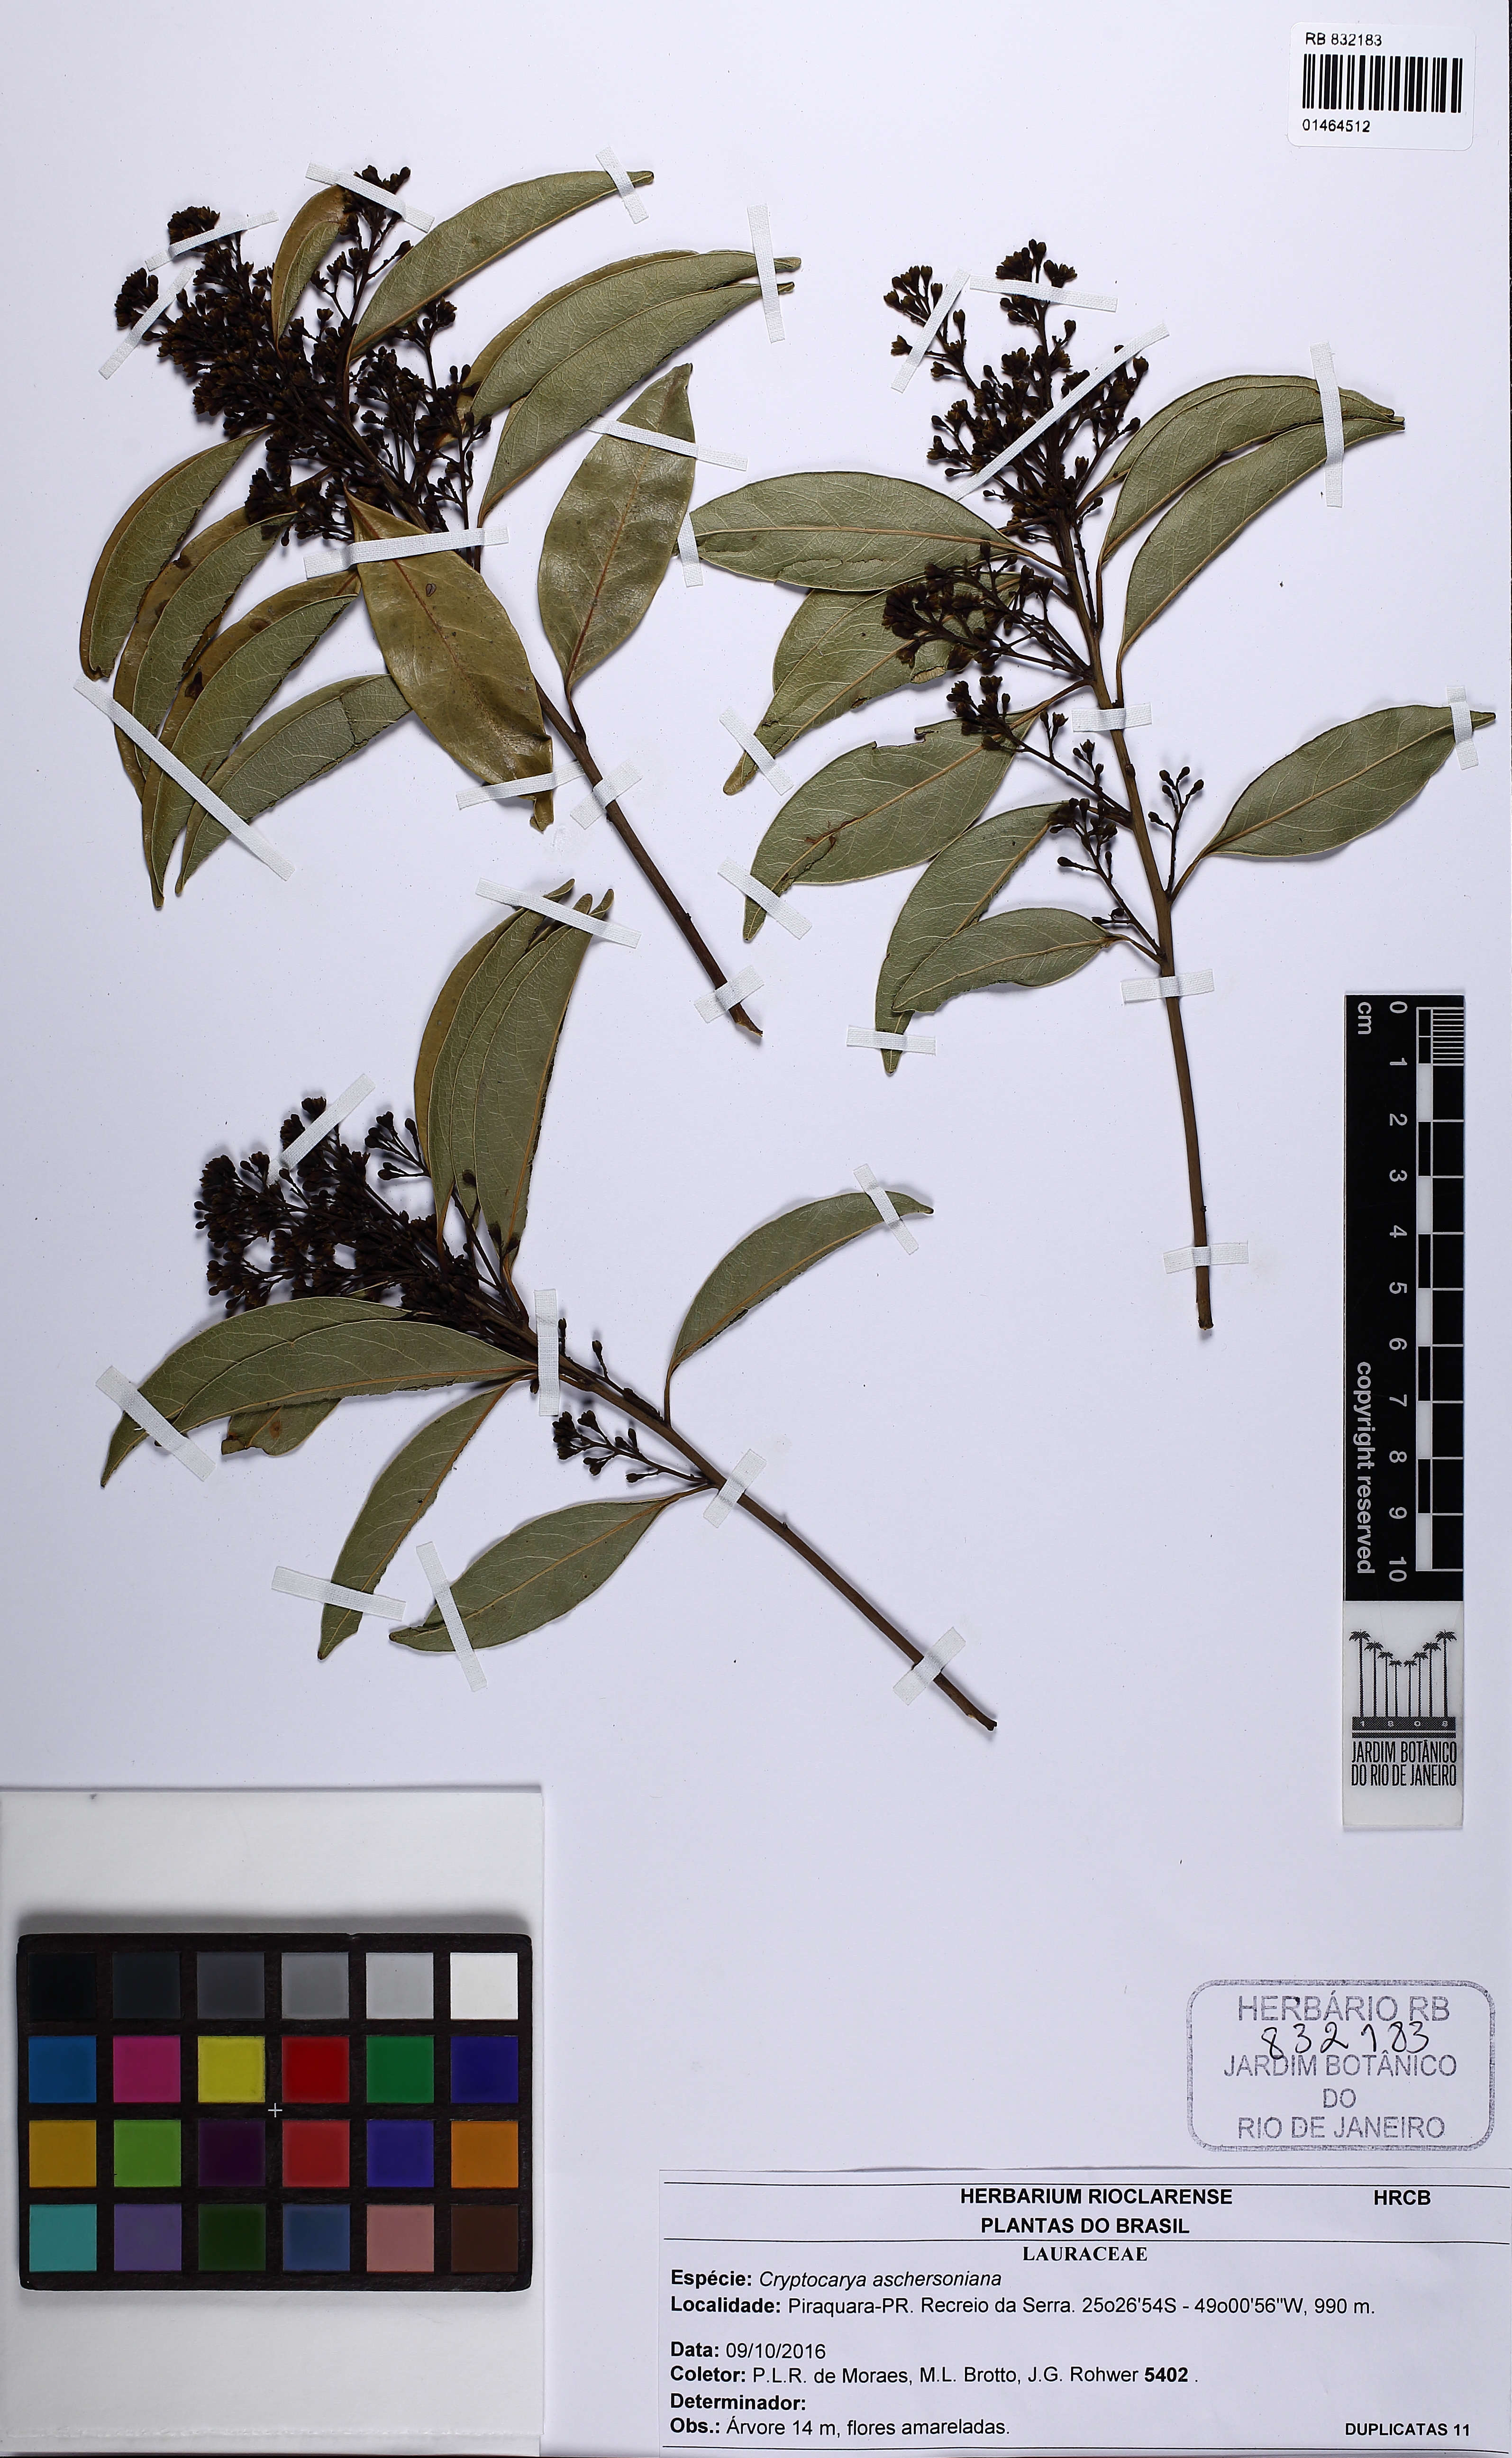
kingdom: Plantae
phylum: Tracheophyta
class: Magnoliopsida
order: Laurales
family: Lauraceae
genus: Cryptocarya
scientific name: Cryptocarya aschersoniana
